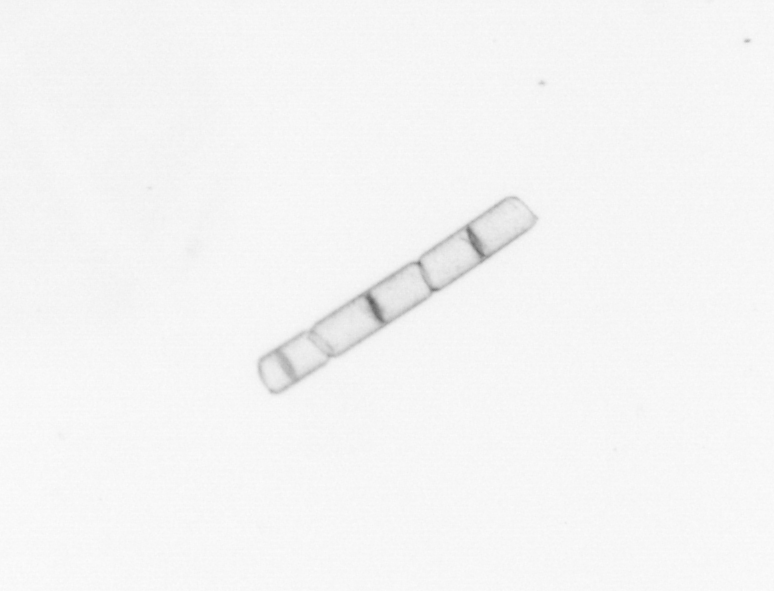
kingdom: Chromista
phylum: Ochrophyta
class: Bacillariophyceae
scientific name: Bacillariophyceae
